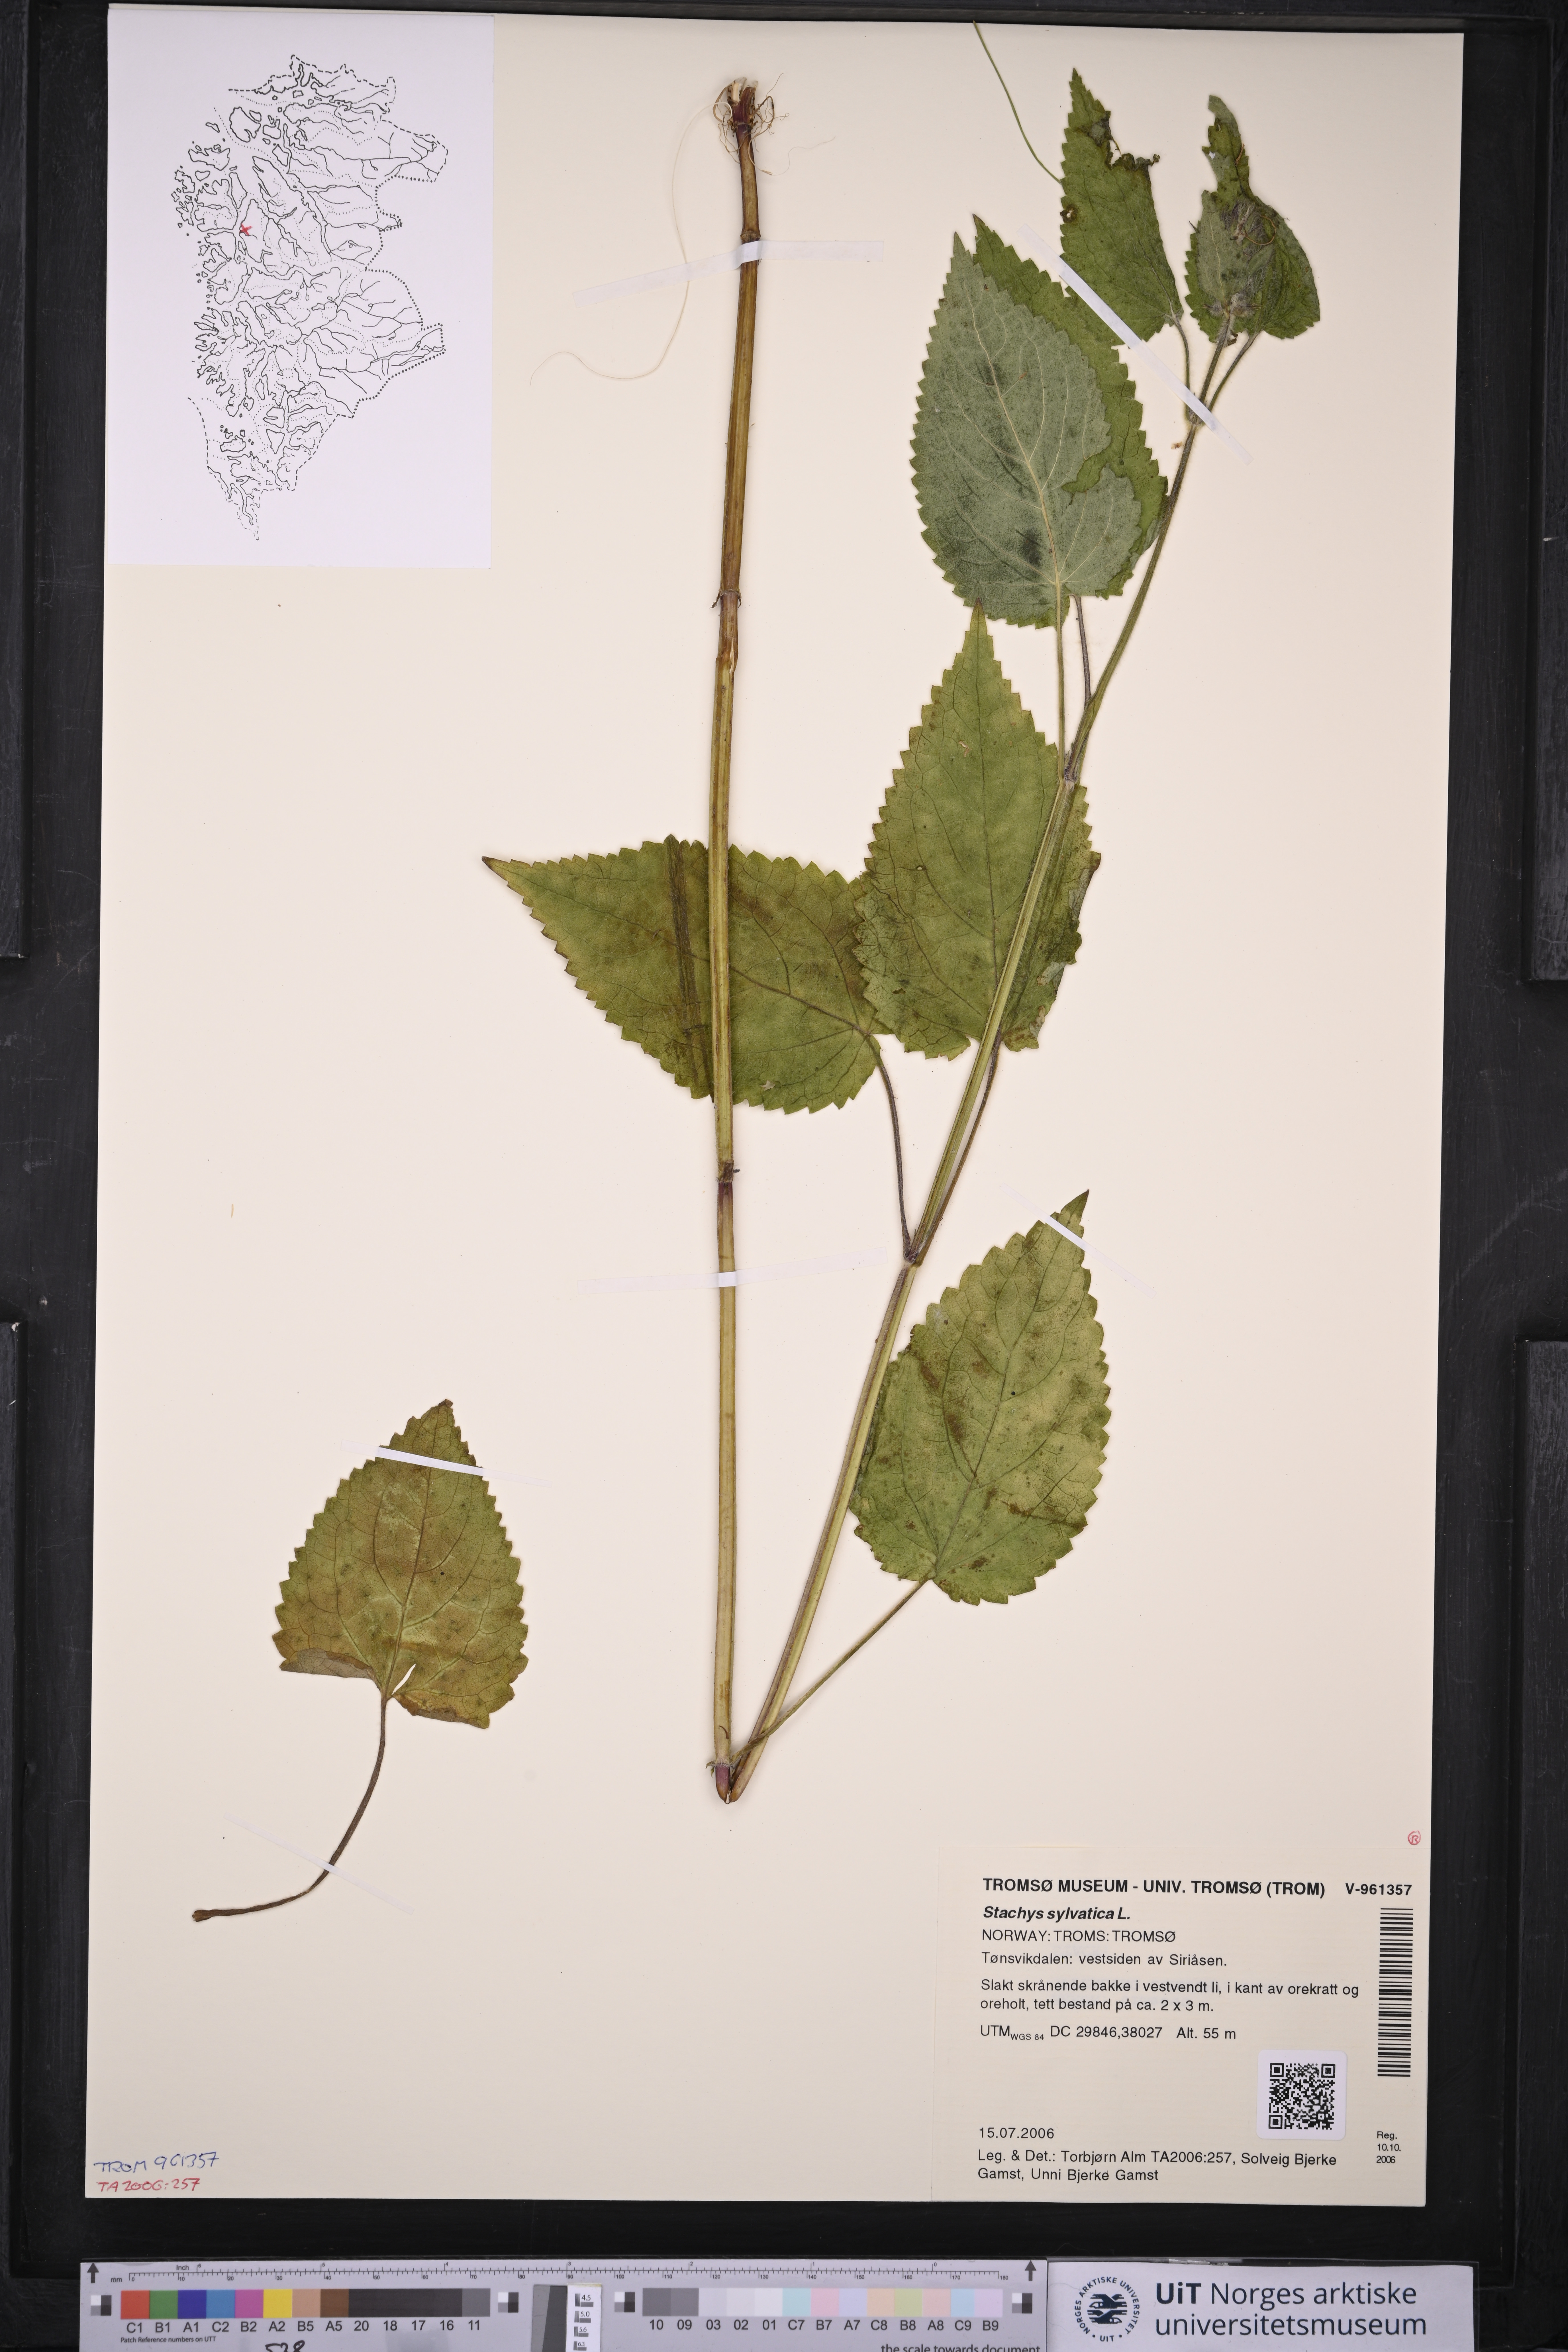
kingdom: Plantae
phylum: Tracheophyta
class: Magnoliopsida
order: Lamiales
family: Lamiaceae
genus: Stachys
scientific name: Stachys sylvatica
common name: Hedge woundwort
